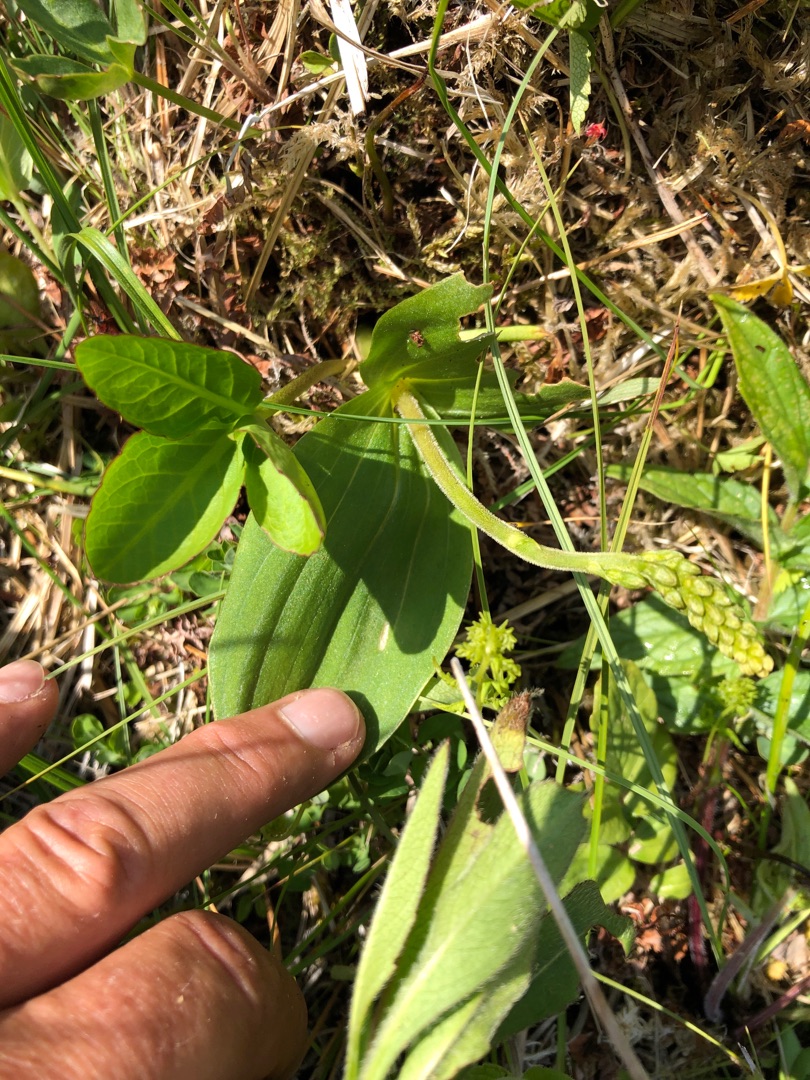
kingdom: Plantae
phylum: Tracheophyta
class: Liliopsida
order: Asparagales
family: Orchidaceae
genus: Neottia
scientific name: Neottia ovata
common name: Ægbladet fliglæbe
